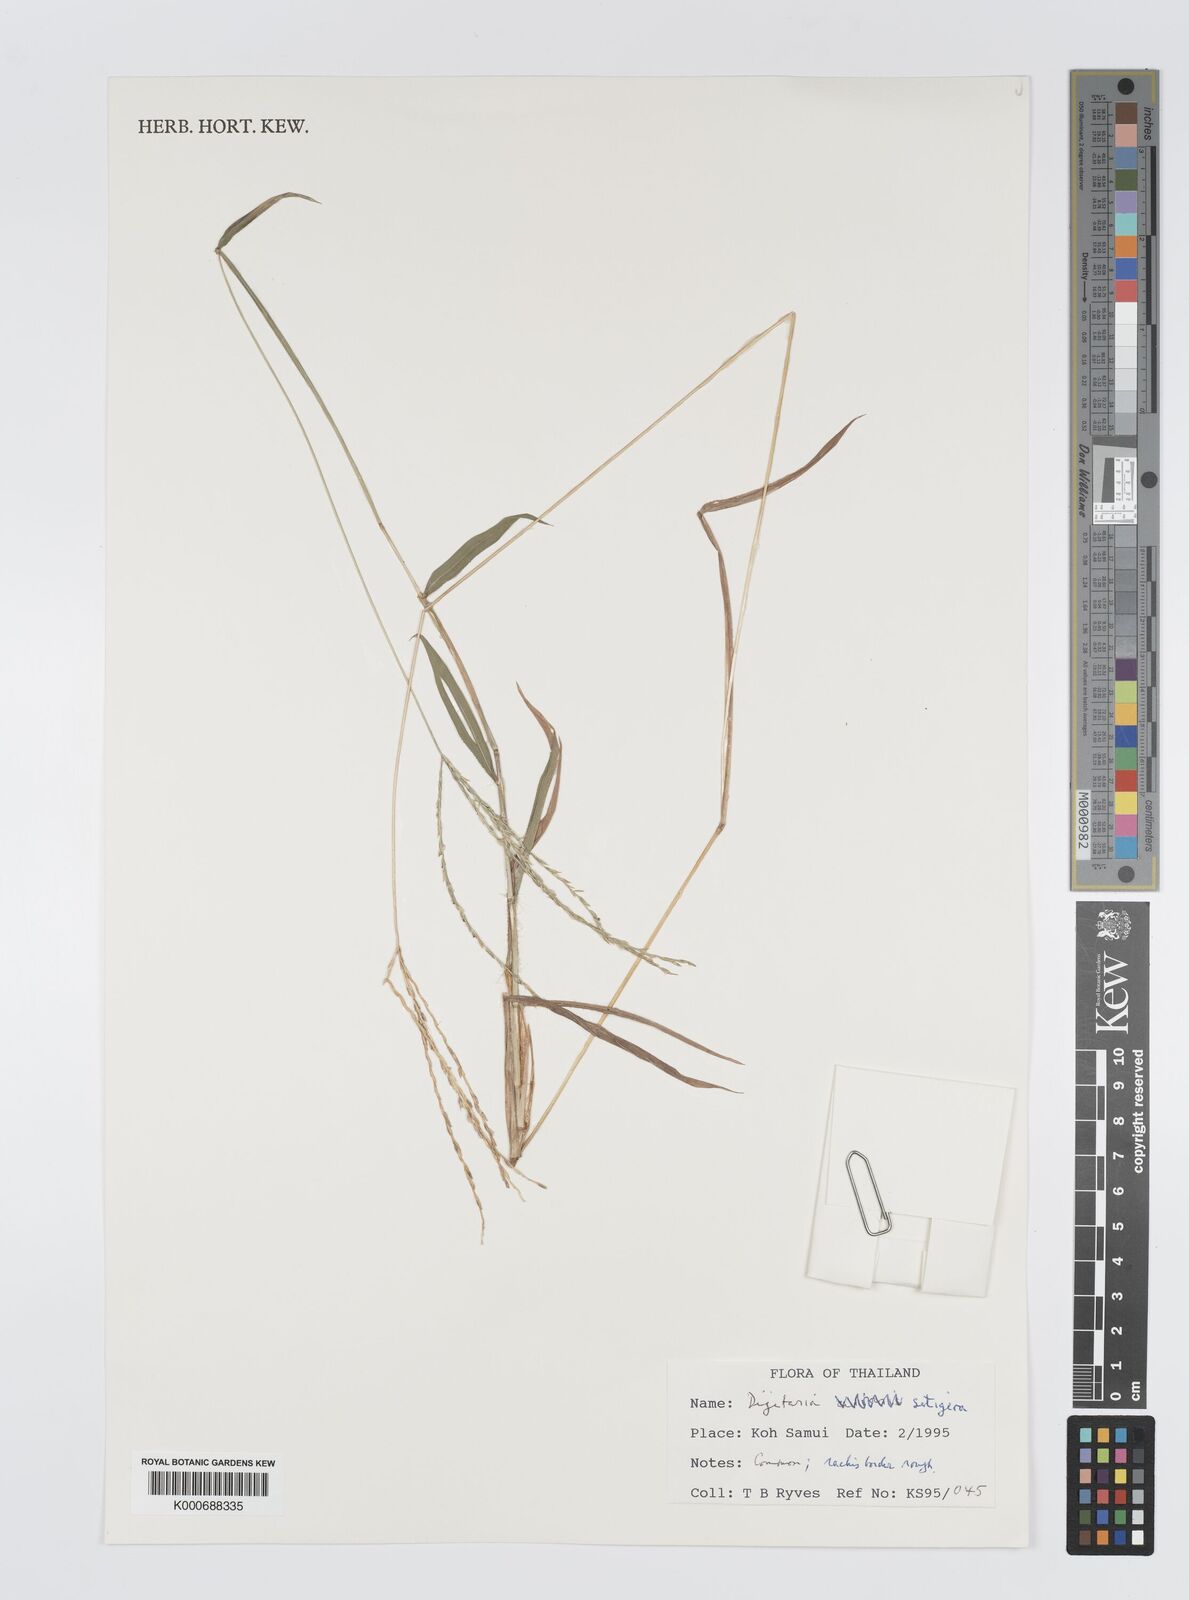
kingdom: Plantae
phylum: Tracheophyta
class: Liliopsida
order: Poales
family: Poaceae
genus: Digitaria
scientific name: Digitaria
